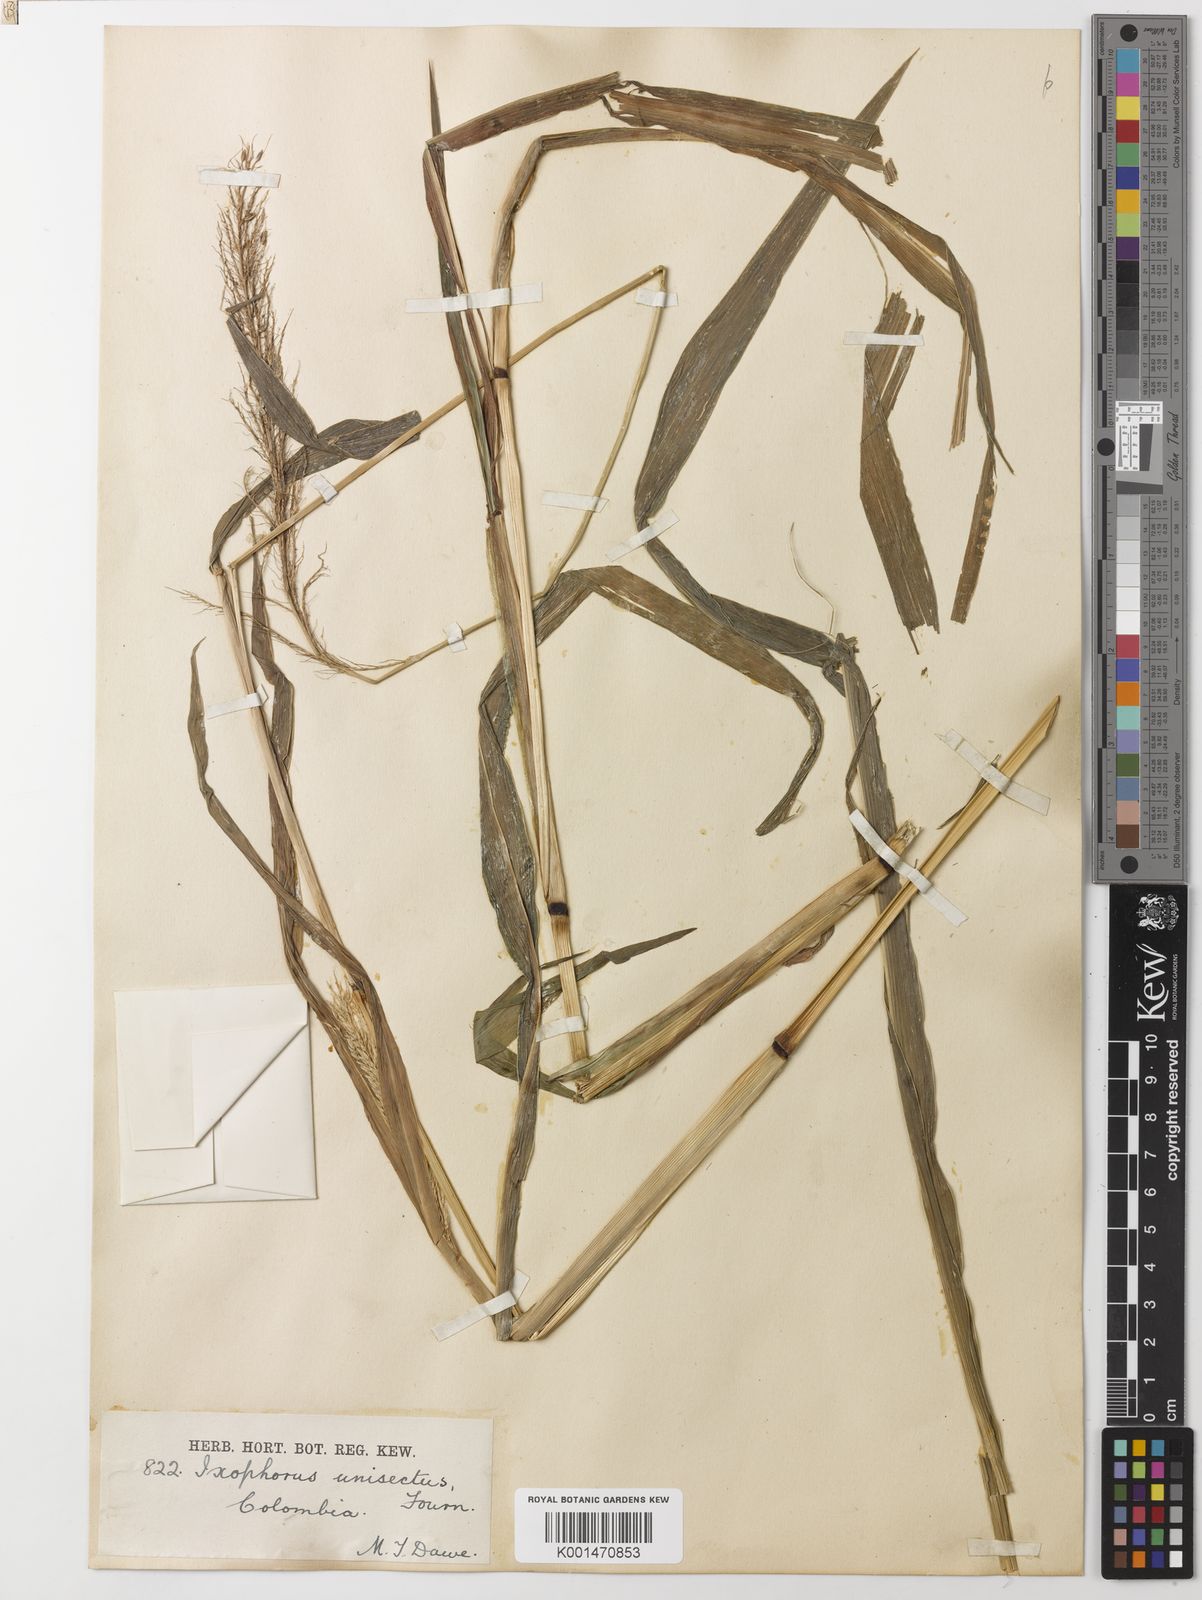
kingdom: Plantae
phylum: Tracheophyta
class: Liliopsida
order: Poales
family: Poaceae
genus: Ixophorus
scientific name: Ixophorus unisetus
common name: Crane grass
